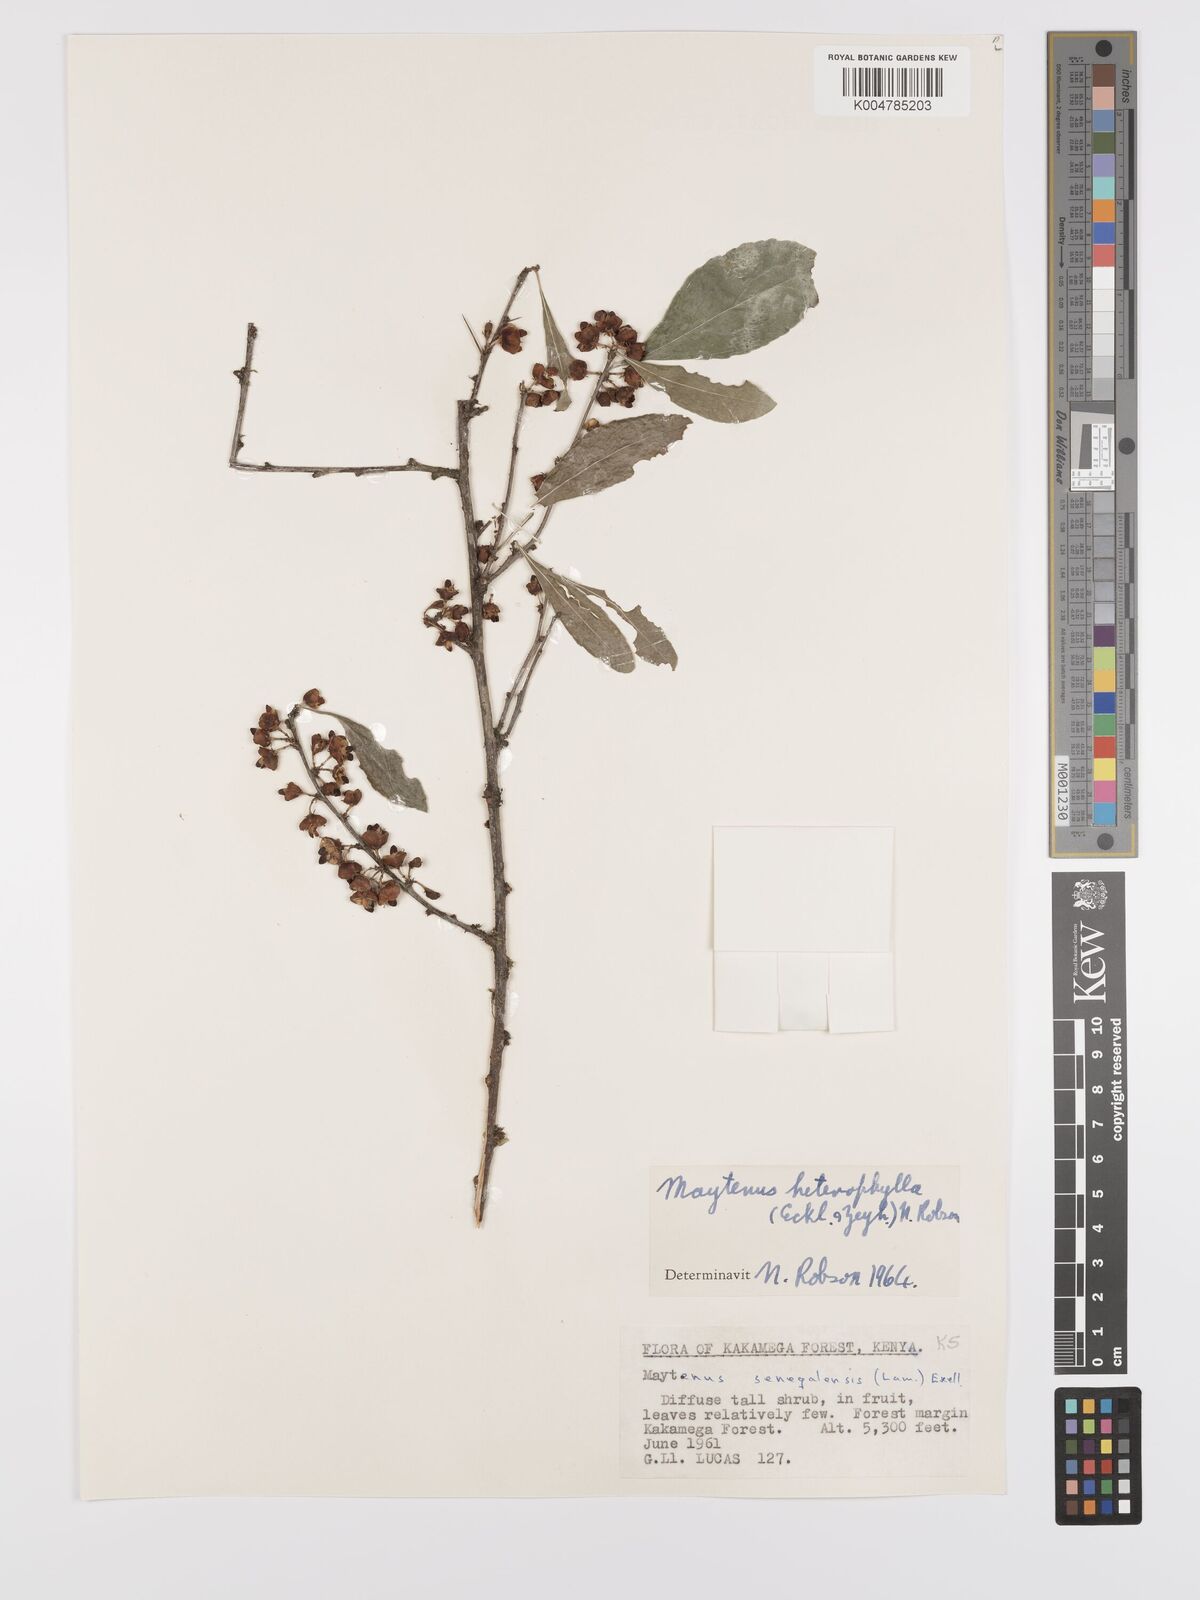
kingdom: Plantae
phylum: Tracheophyta
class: Magnoliopsida
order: Celastrales
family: Celastraceae
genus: Gymnosporia
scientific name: Gymnosporia heterophylla
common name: Angle-stem spikethorn
